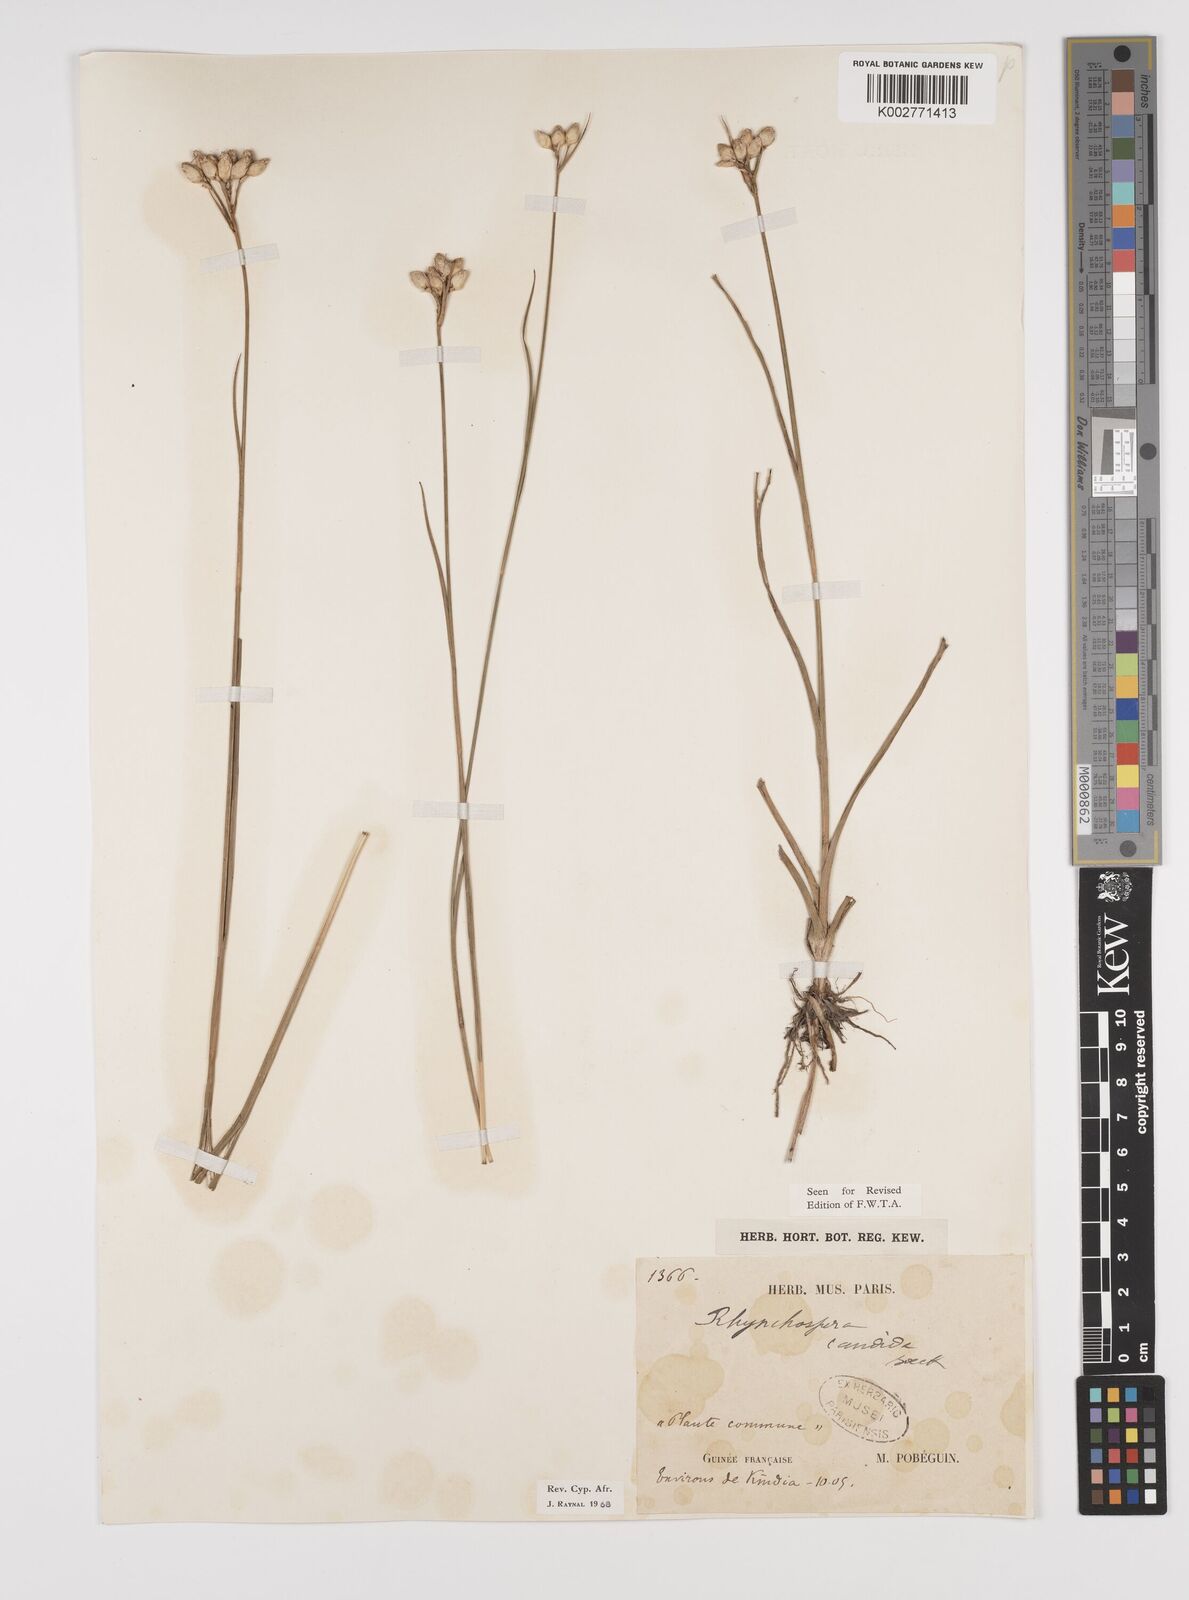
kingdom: Plantae
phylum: Tracheophyta
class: Liliopsida
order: Poales
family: Cyperaceae
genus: Rhynchospora
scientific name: Rhynchospora candida
